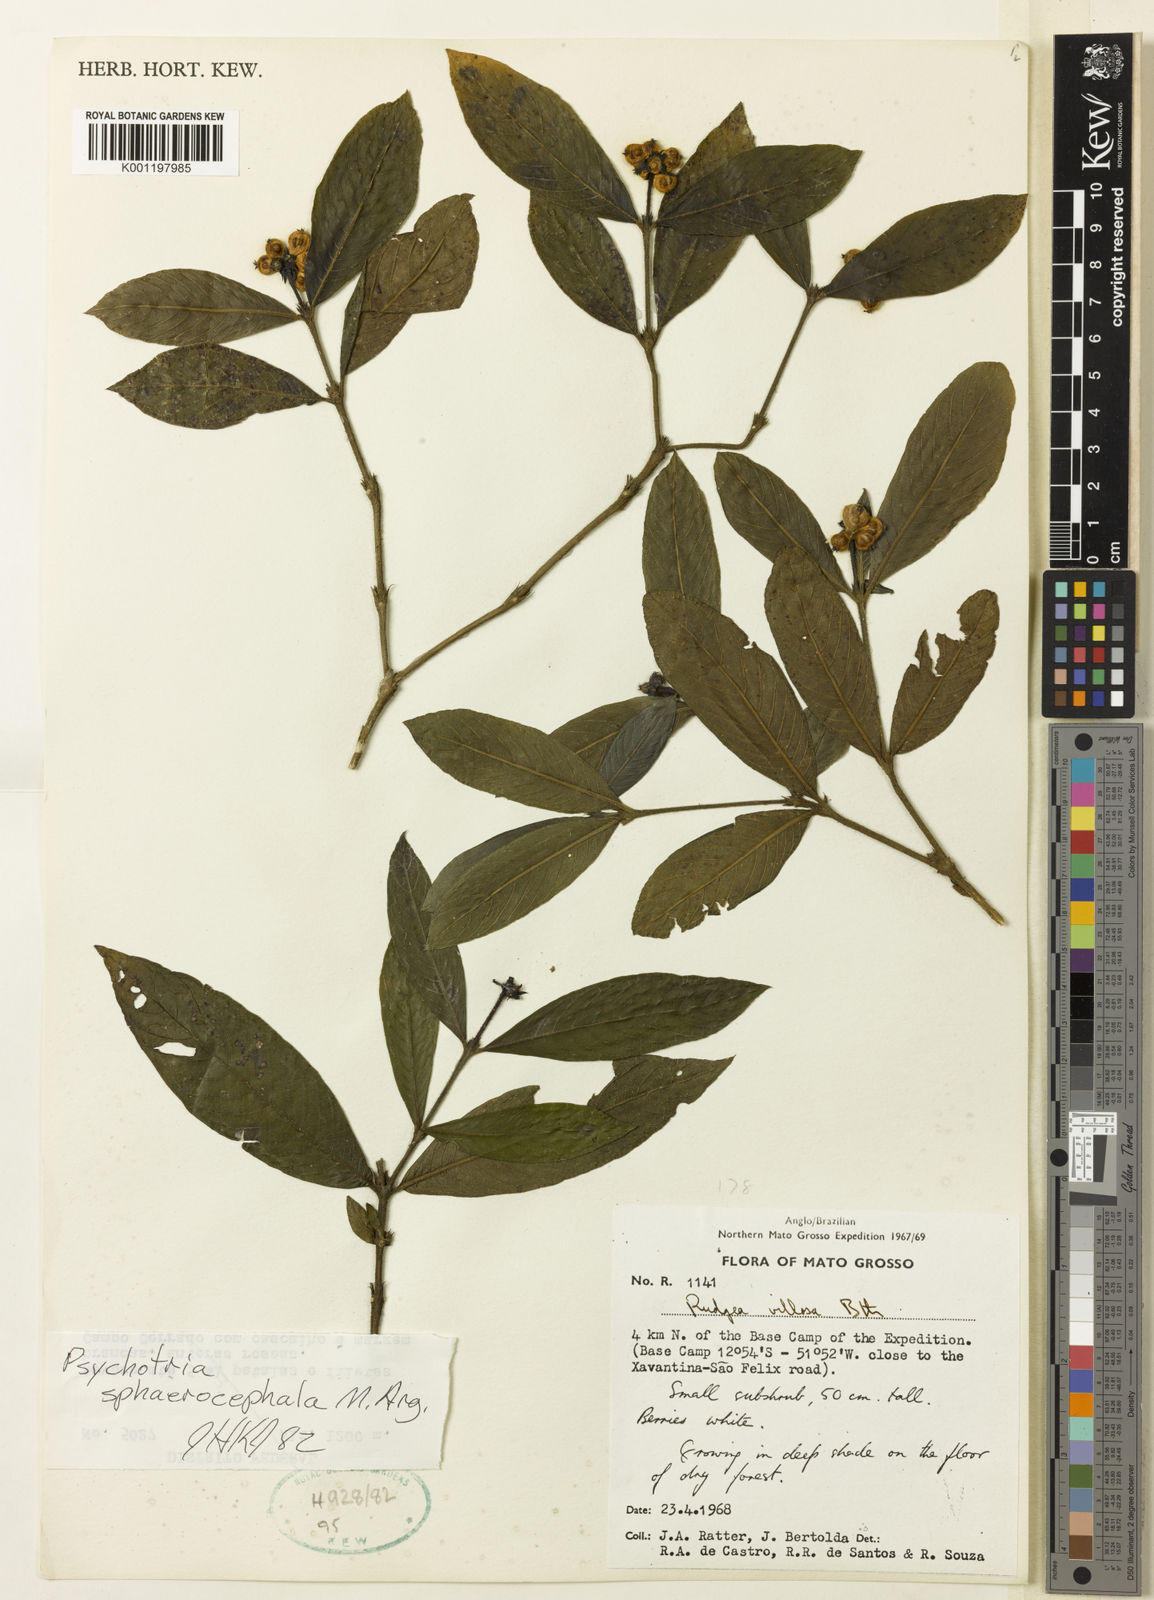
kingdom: Plantae
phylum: Tracheophyta
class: Magnoliopsida
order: Gentianales
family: Rubiaceae
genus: Psychotria
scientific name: Psychotria
